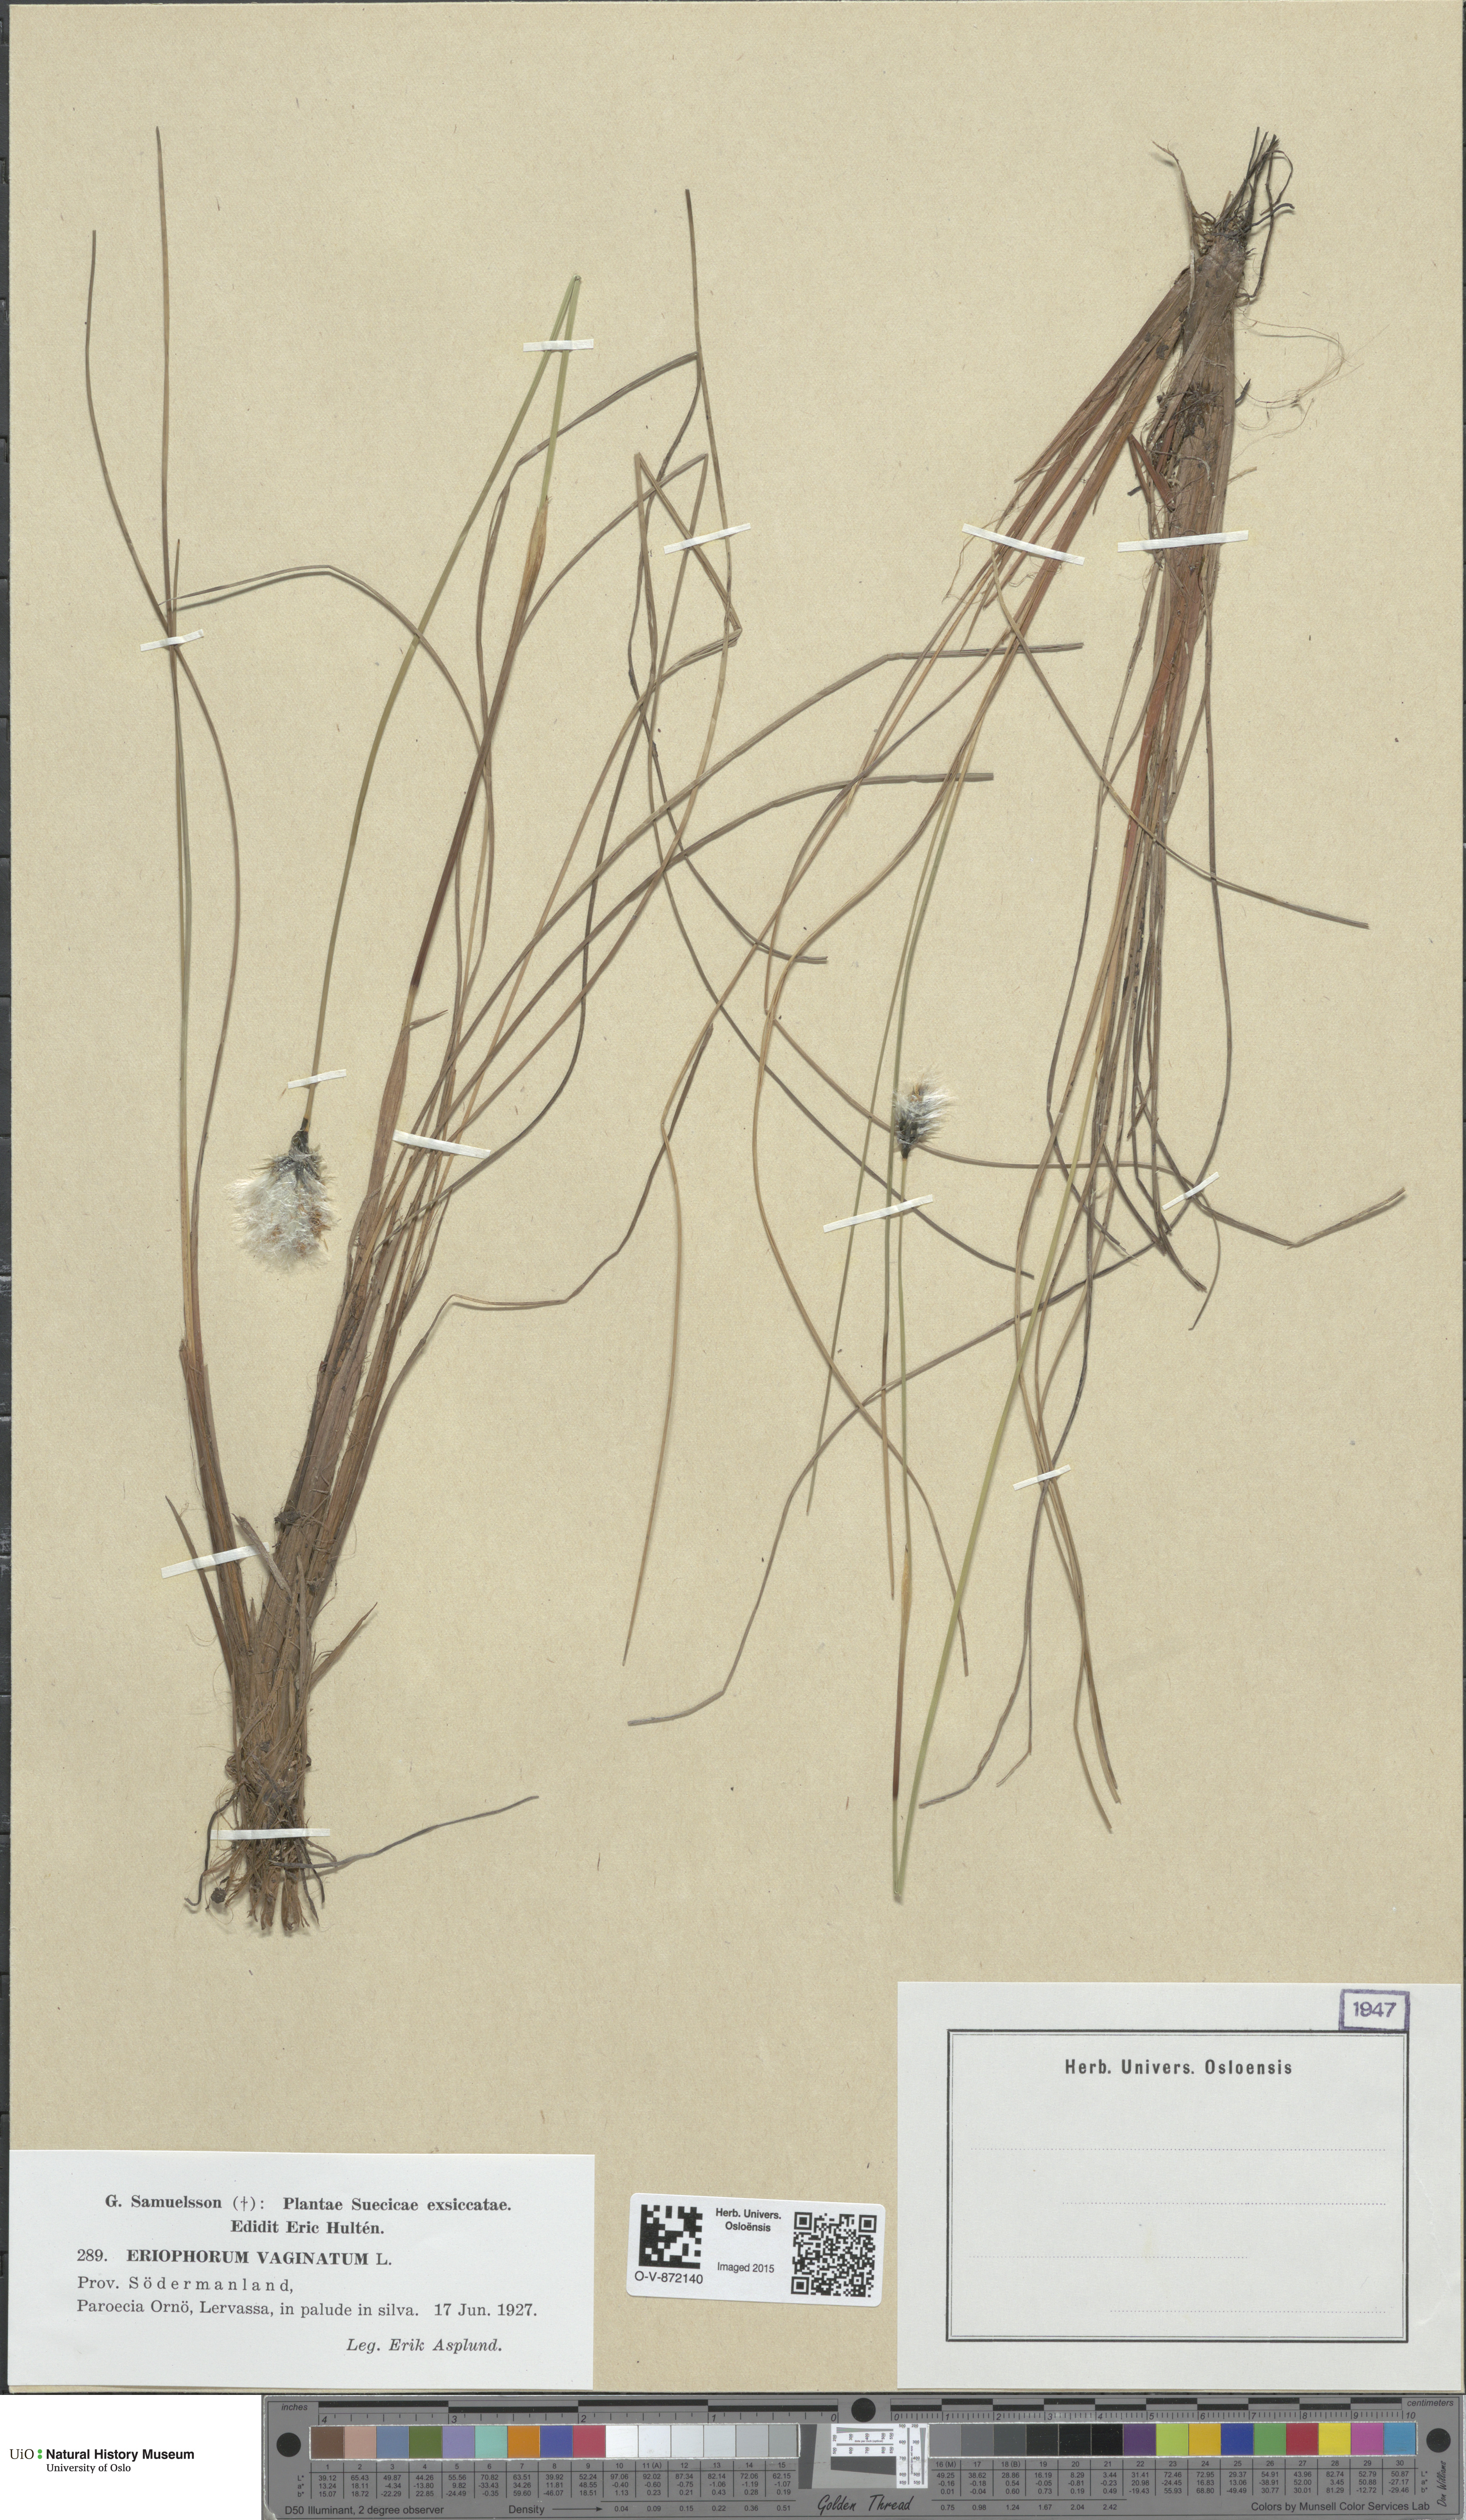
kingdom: Plantae
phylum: Tracheophyta
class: Liliopsida
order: Poales
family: Cyperaceae
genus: Eriophorum
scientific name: Eriophorum vaginatum
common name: Hare's-tail cottongrass
